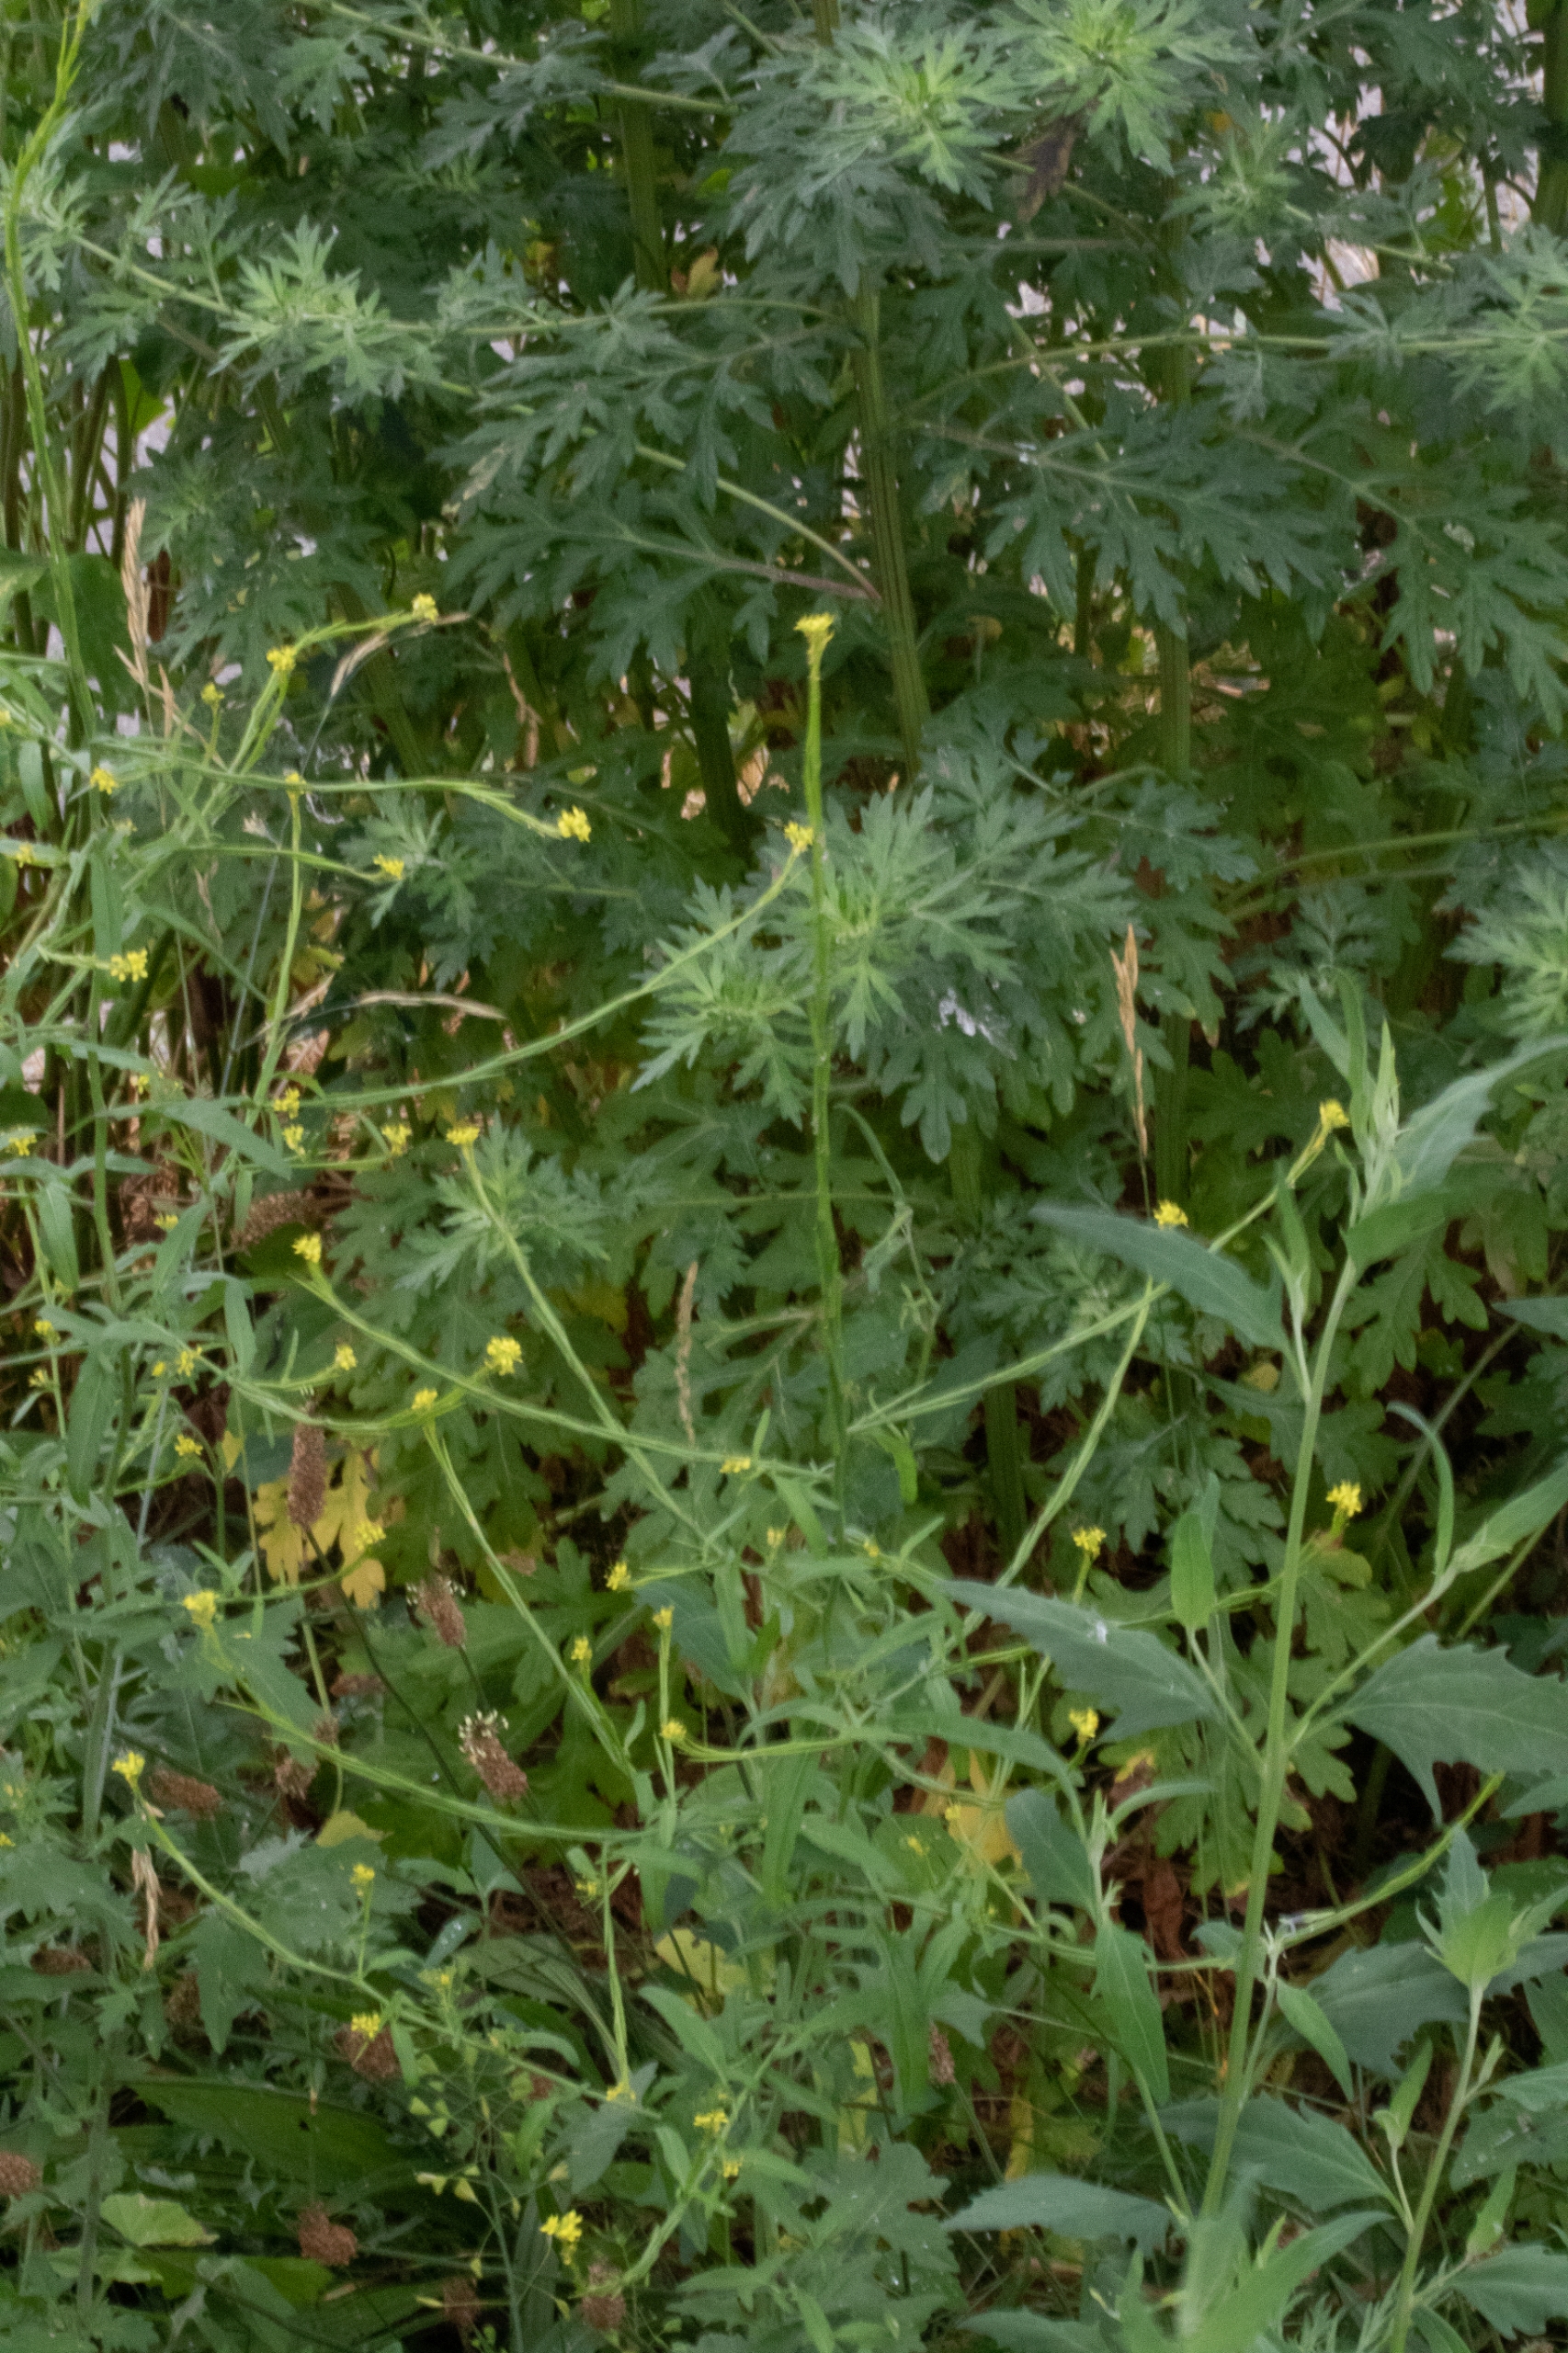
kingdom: Plantae
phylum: Tracheophyta
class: Magnoliopsida
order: Brassicales
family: Brassicaceae
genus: Sisymbrium
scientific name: Sisymbrium officinale
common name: Rank vejsennep
